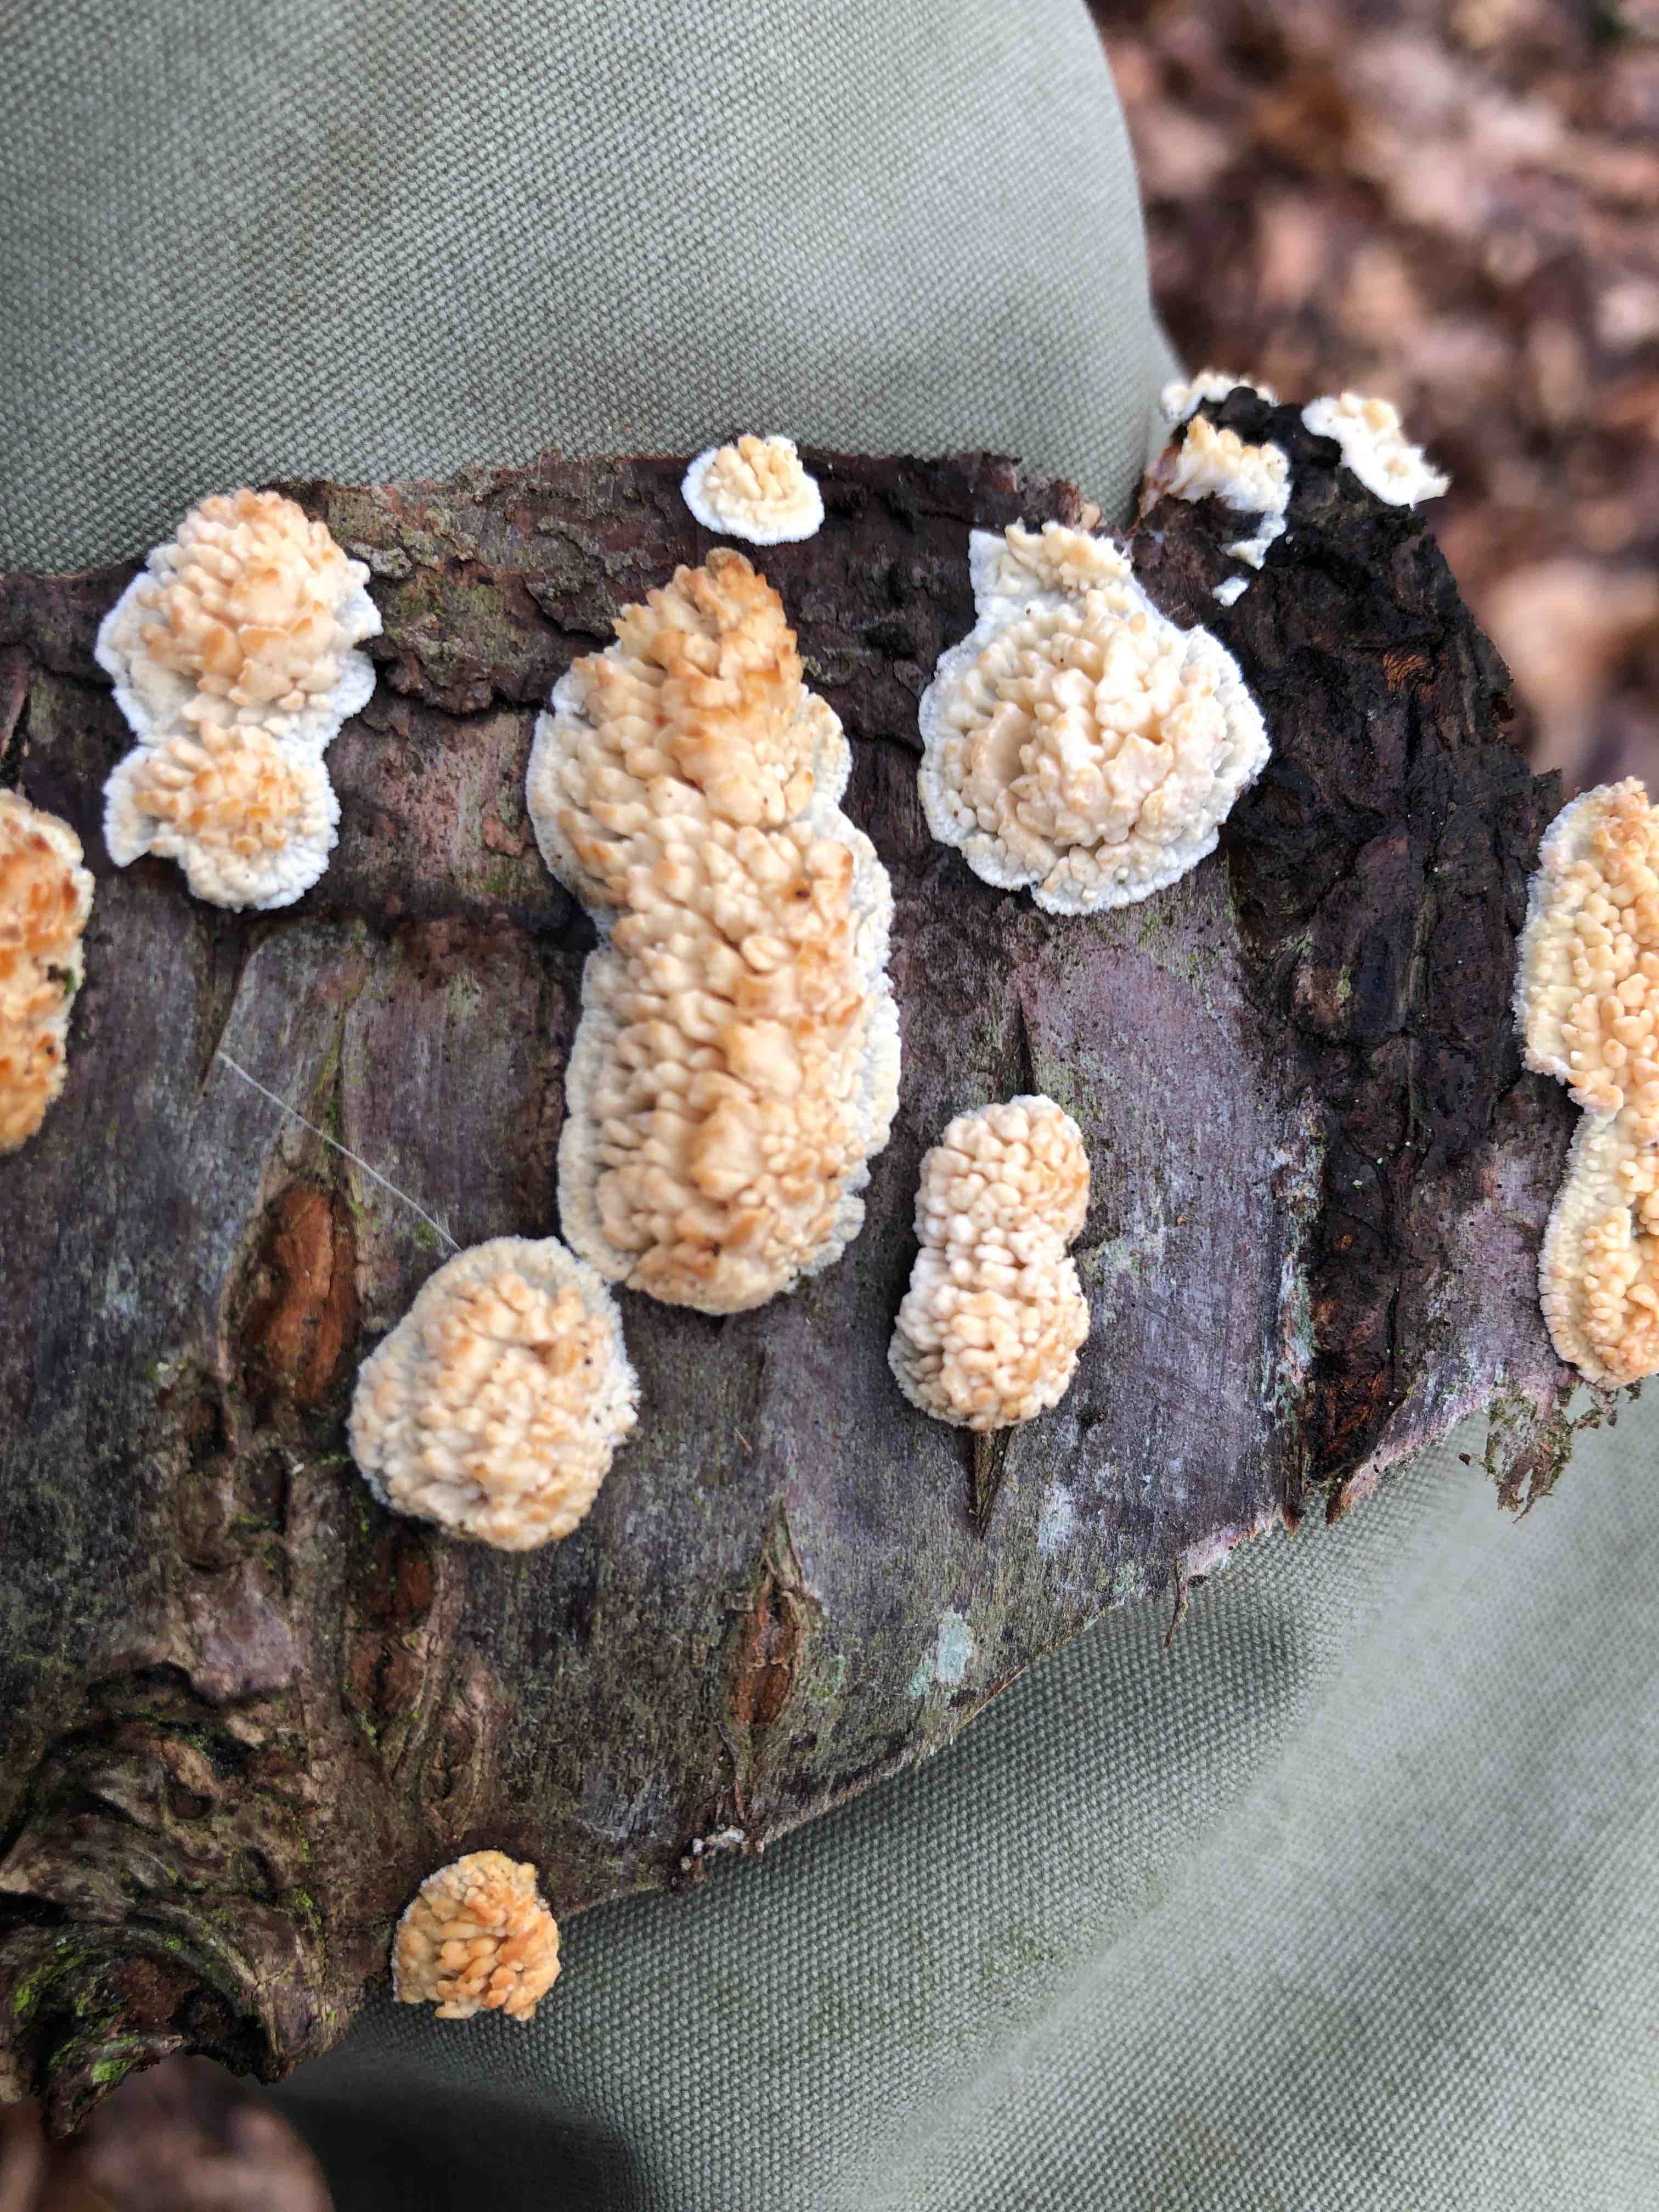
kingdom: Fungi
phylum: Basidiomycota
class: Agaricomycetes
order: Hymenochaetales
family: Schizoporaceae
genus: Xylodon
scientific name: Xylodon radula
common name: grovtandet kalkskind
